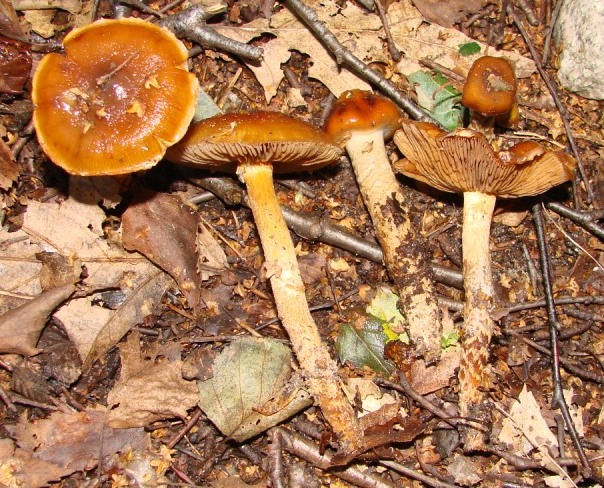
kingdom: Fungi
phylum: Basidiomycota
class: Agaricomycetes
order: Agaricales
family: Cortinariaceae
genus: Cortinarius
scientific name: Cortinarius collinitoides
